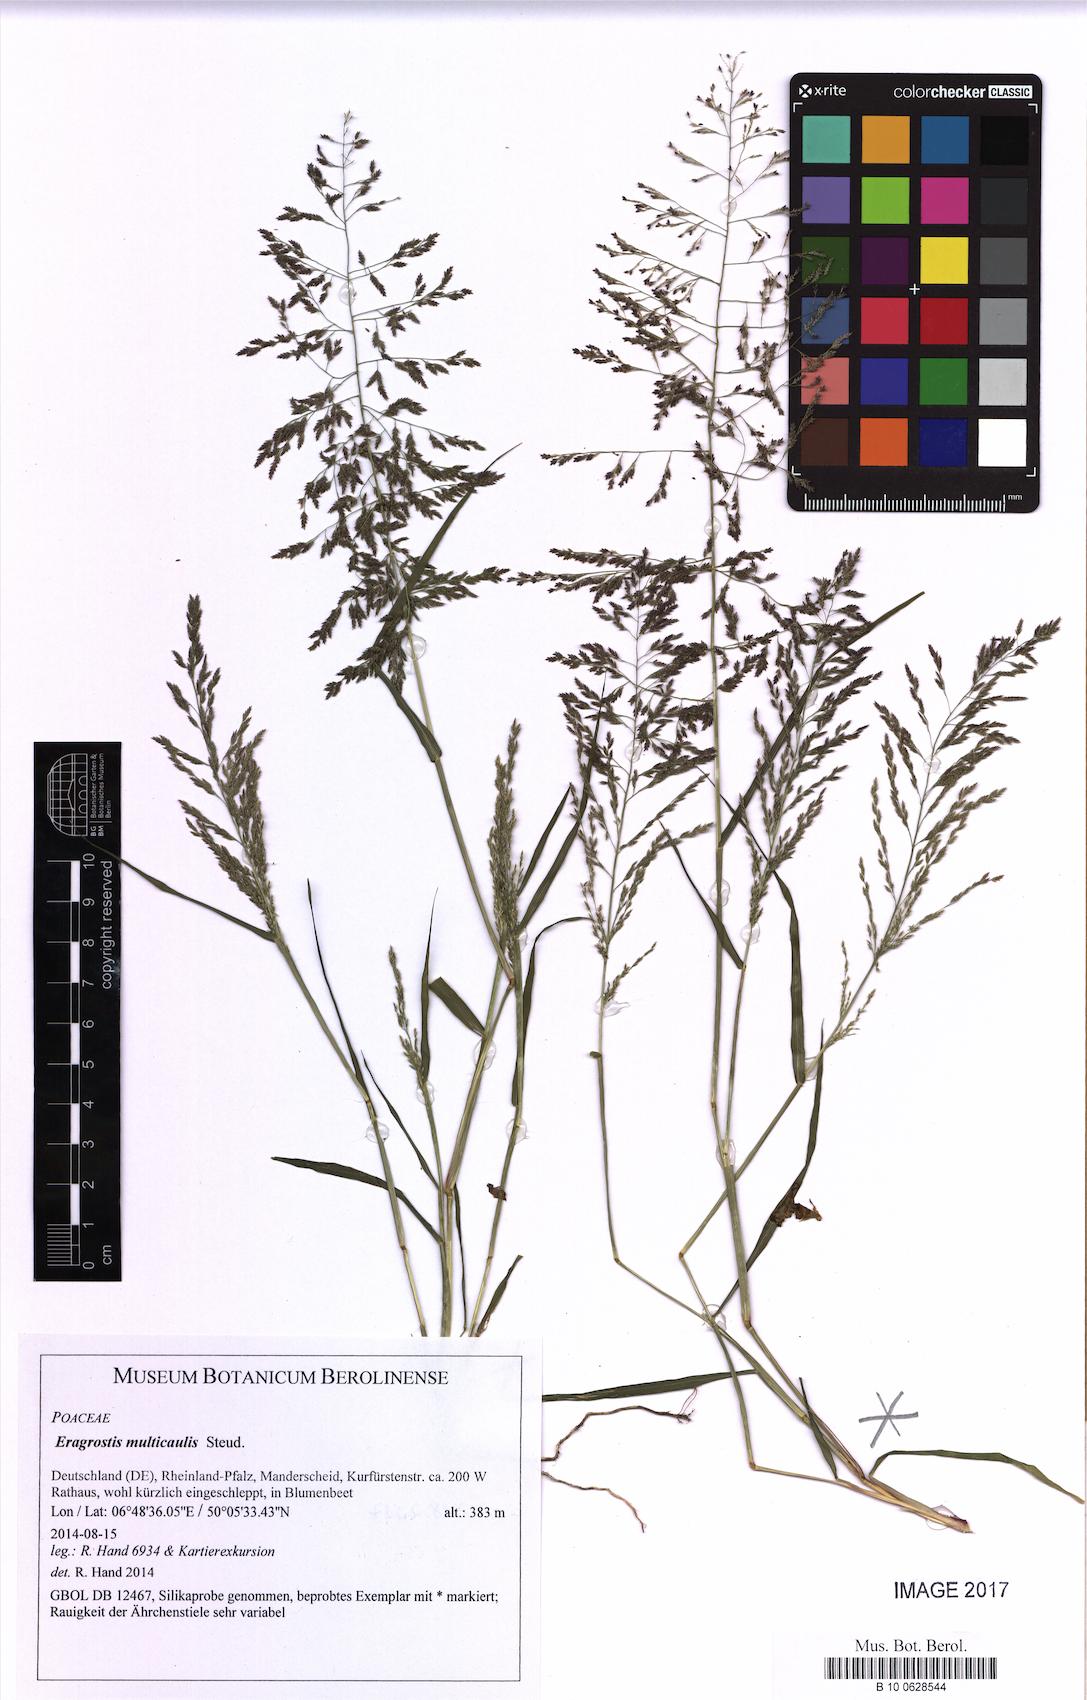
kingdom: Plantae
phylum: Tracheophyta
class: Liliopsida
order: Poales
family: Poaceae
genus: Eragrostis
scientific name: Eragrostis multicaulis
